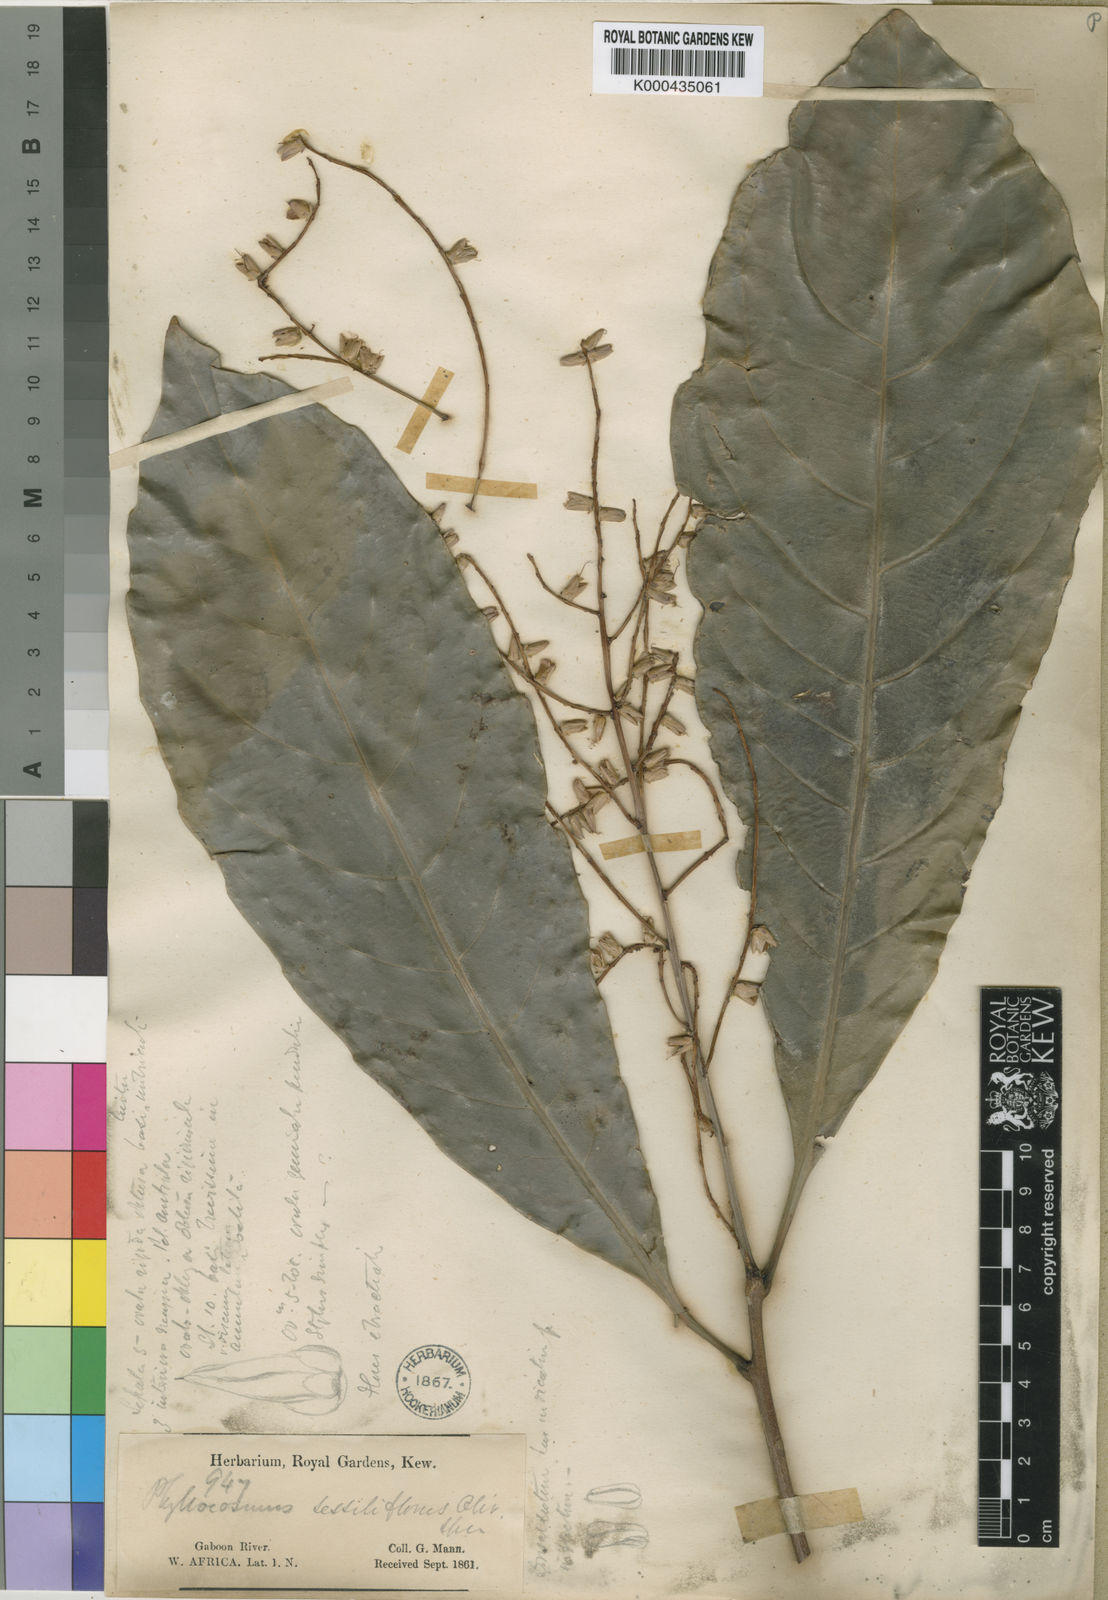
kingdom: Plantae
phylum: Tracheophyta
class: Magnoliopsida
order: Malpighiales
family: Ixonanthaceae
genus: Phyllocosmus
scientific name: Phyllocosmus sessiliflorus
